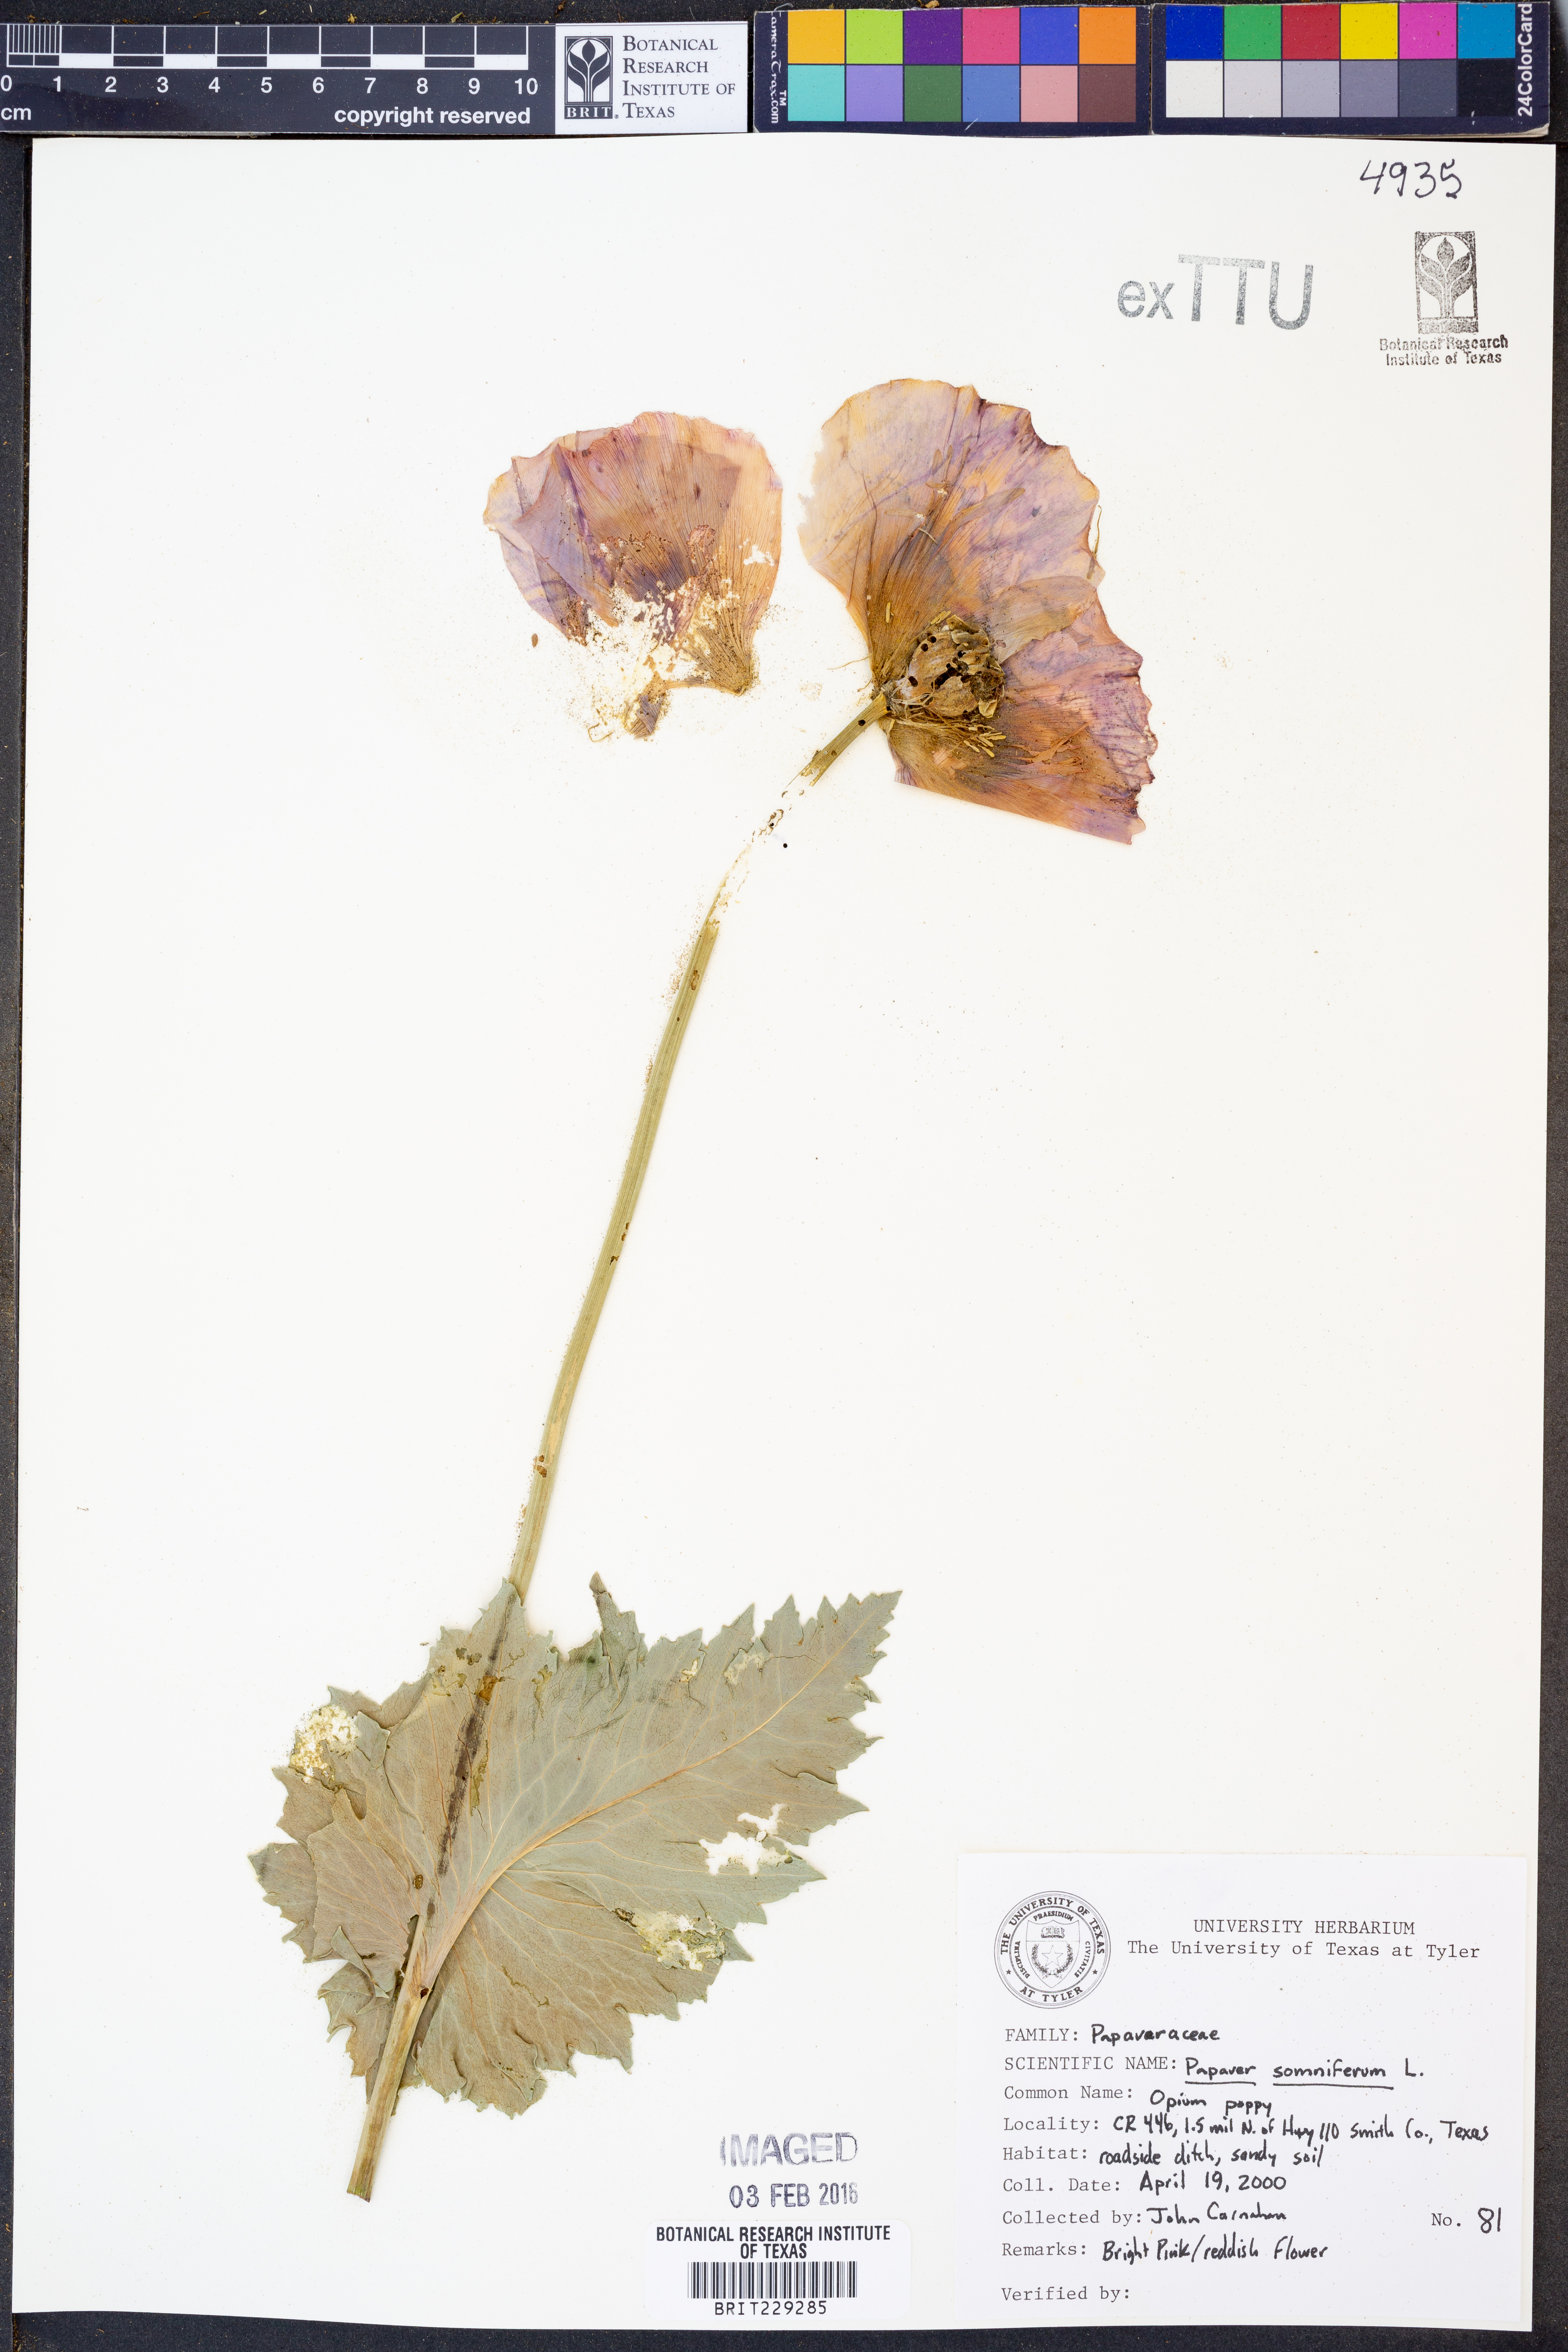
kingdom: Plantae
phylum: Tracheophyta
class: Magnoliopsida
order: Ranunculales
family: Papaveraceae
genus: Papaver
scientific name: Papaver somniferum
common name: Opium poppy
